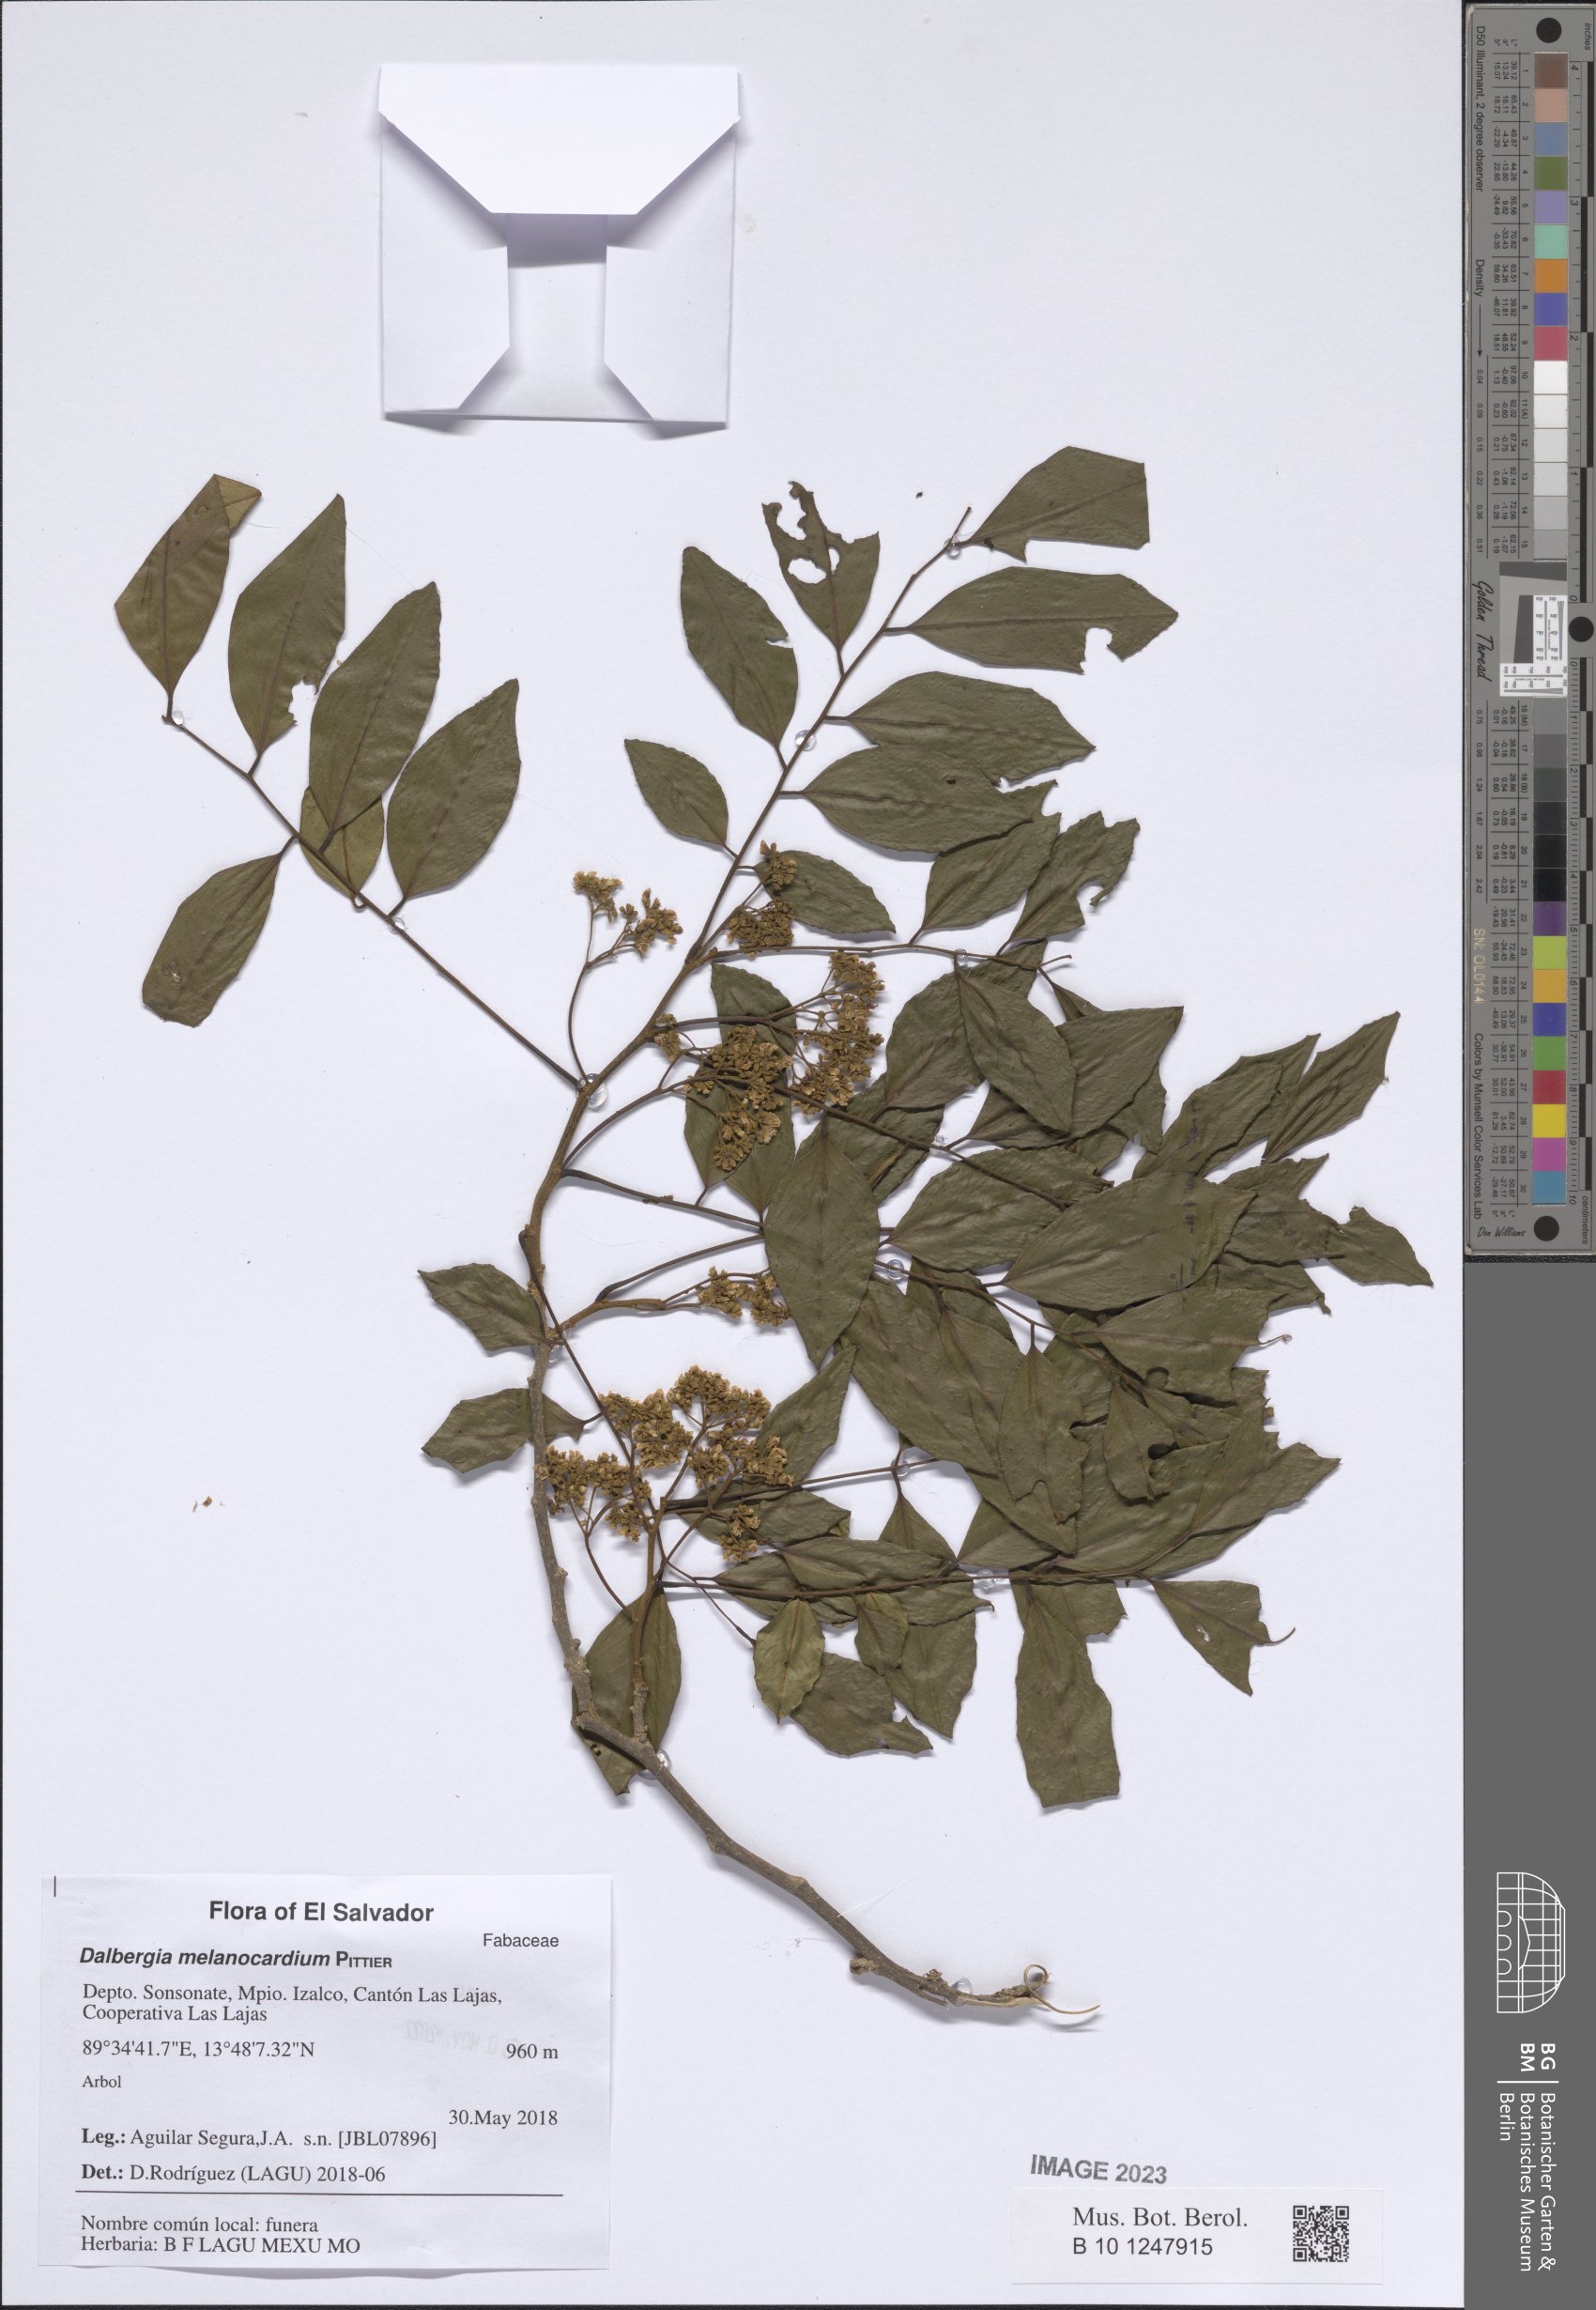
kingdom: Plantae
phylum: Tracheophyta
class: Magnoliopsida
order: Fabales
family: Fabaceae
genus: Dalbergia
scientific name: Dalbergia melanocardium
